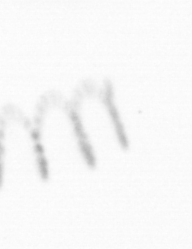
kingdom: Chromista
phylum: Ochrophyta
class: Bacillariophyceae
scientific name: Bacillariophyceae
